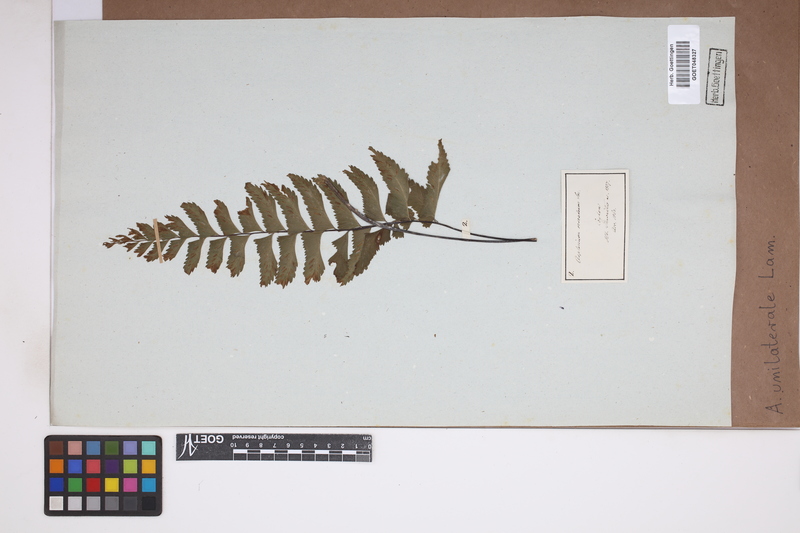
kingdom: Plantae
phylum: Tracheophyta
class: Polypodiopsida
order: Polypodiales
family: Aspleniaceae
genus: Hymenasplenium
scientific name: Hymenasplenium unilaterale
